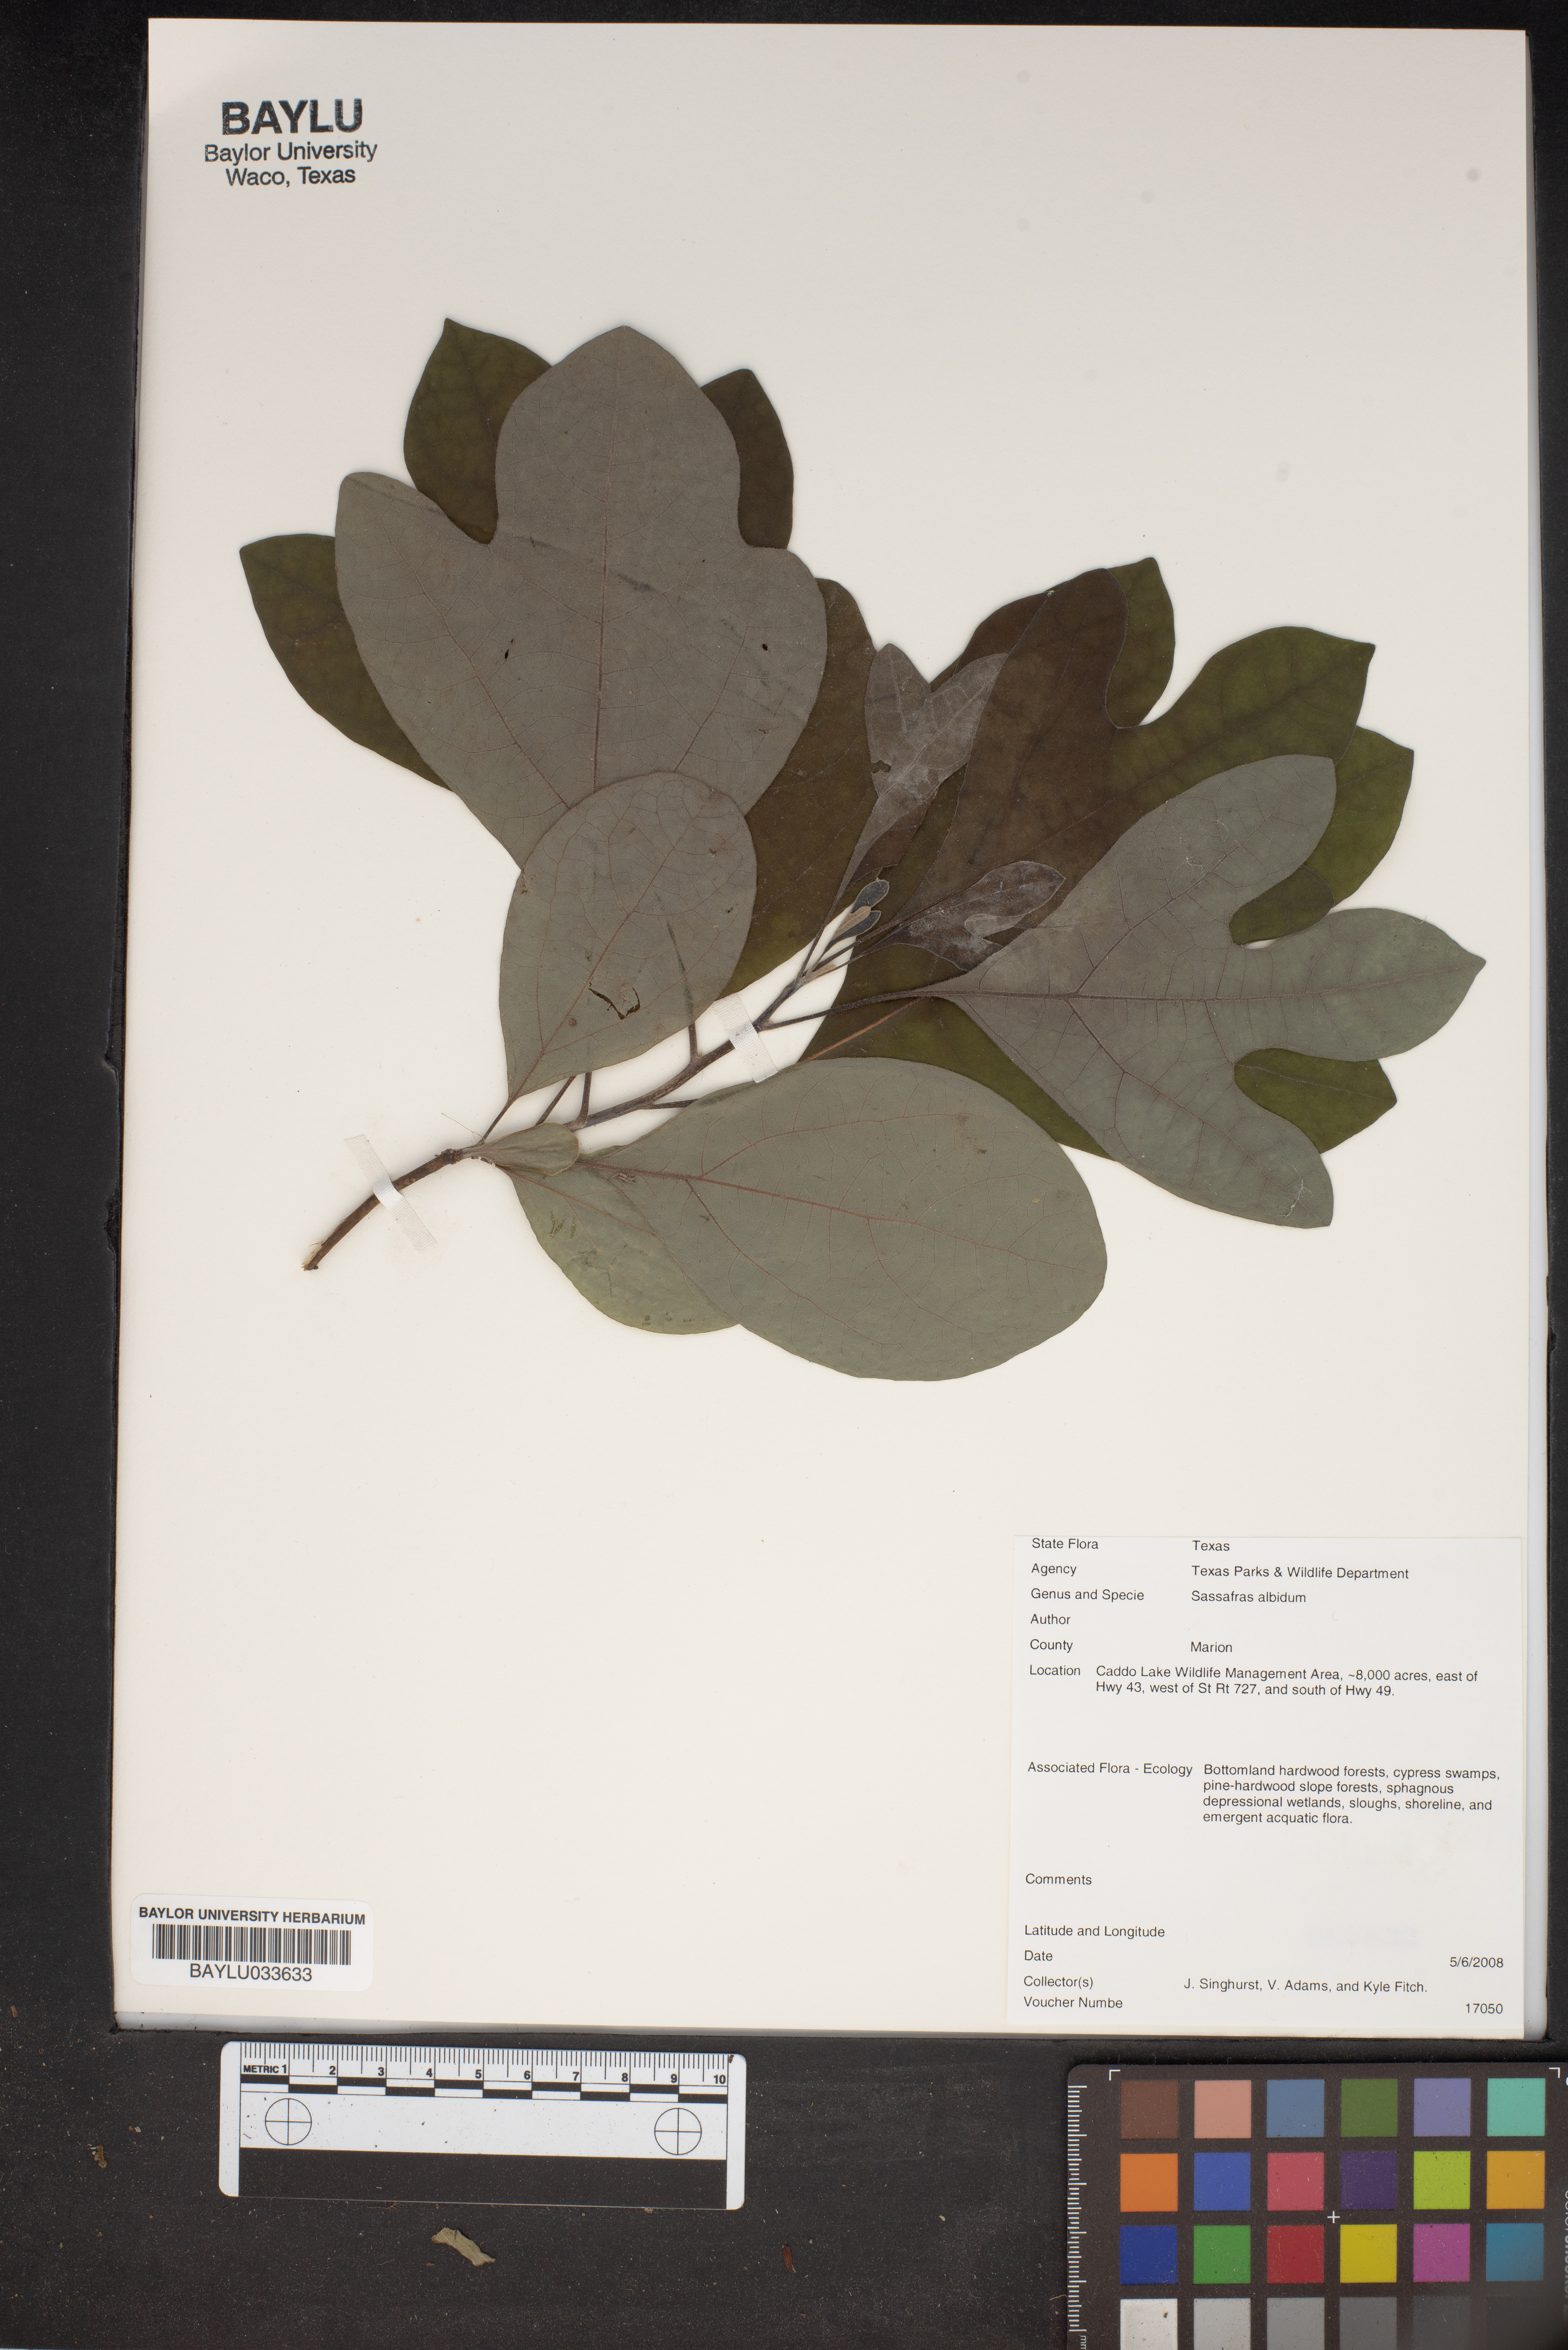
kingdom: Plantae
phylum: Tracheophyta
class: Magnoliopsida
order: Laurales
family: Lauraceae
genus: Sassafras
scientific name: Sassafras albidum
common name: Sassafras
